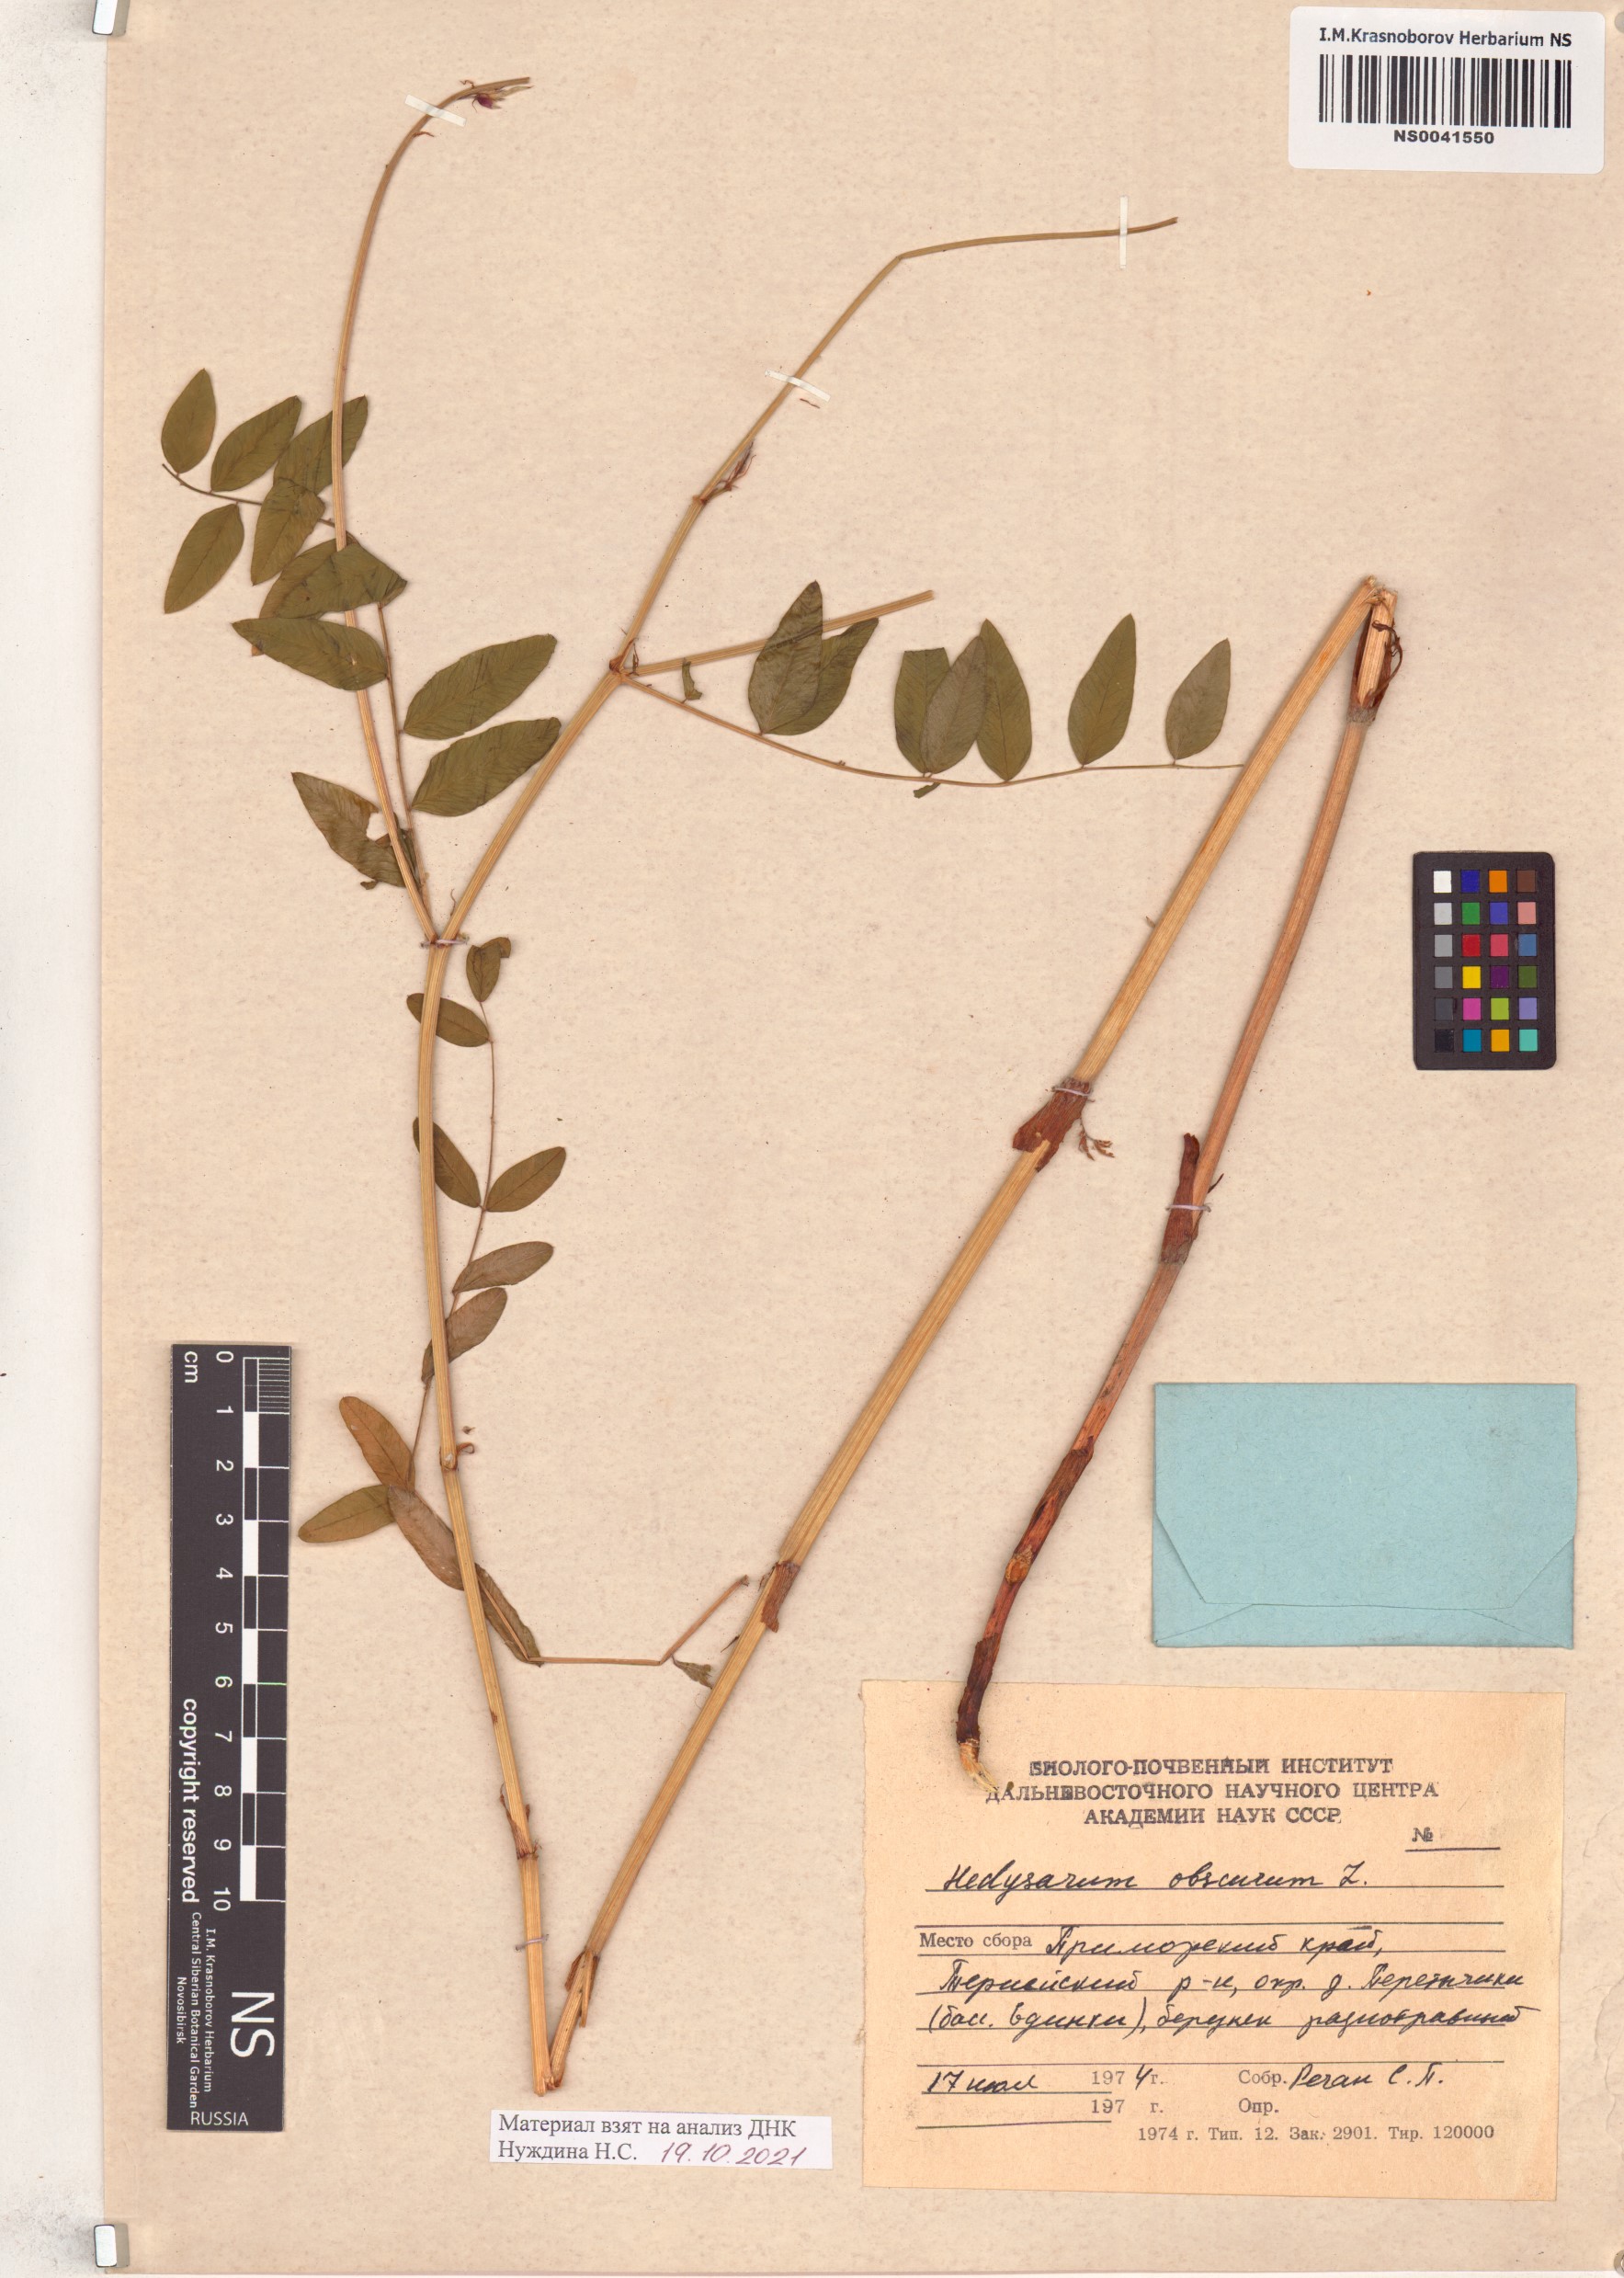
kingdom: Plantae
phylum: Tracheophyta
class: Magnoliopsida
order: Fabales
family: Fabaceae
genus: Hedysarum
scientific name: Hedysarum hedysaroides
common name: Alpine french-honeysuckle
